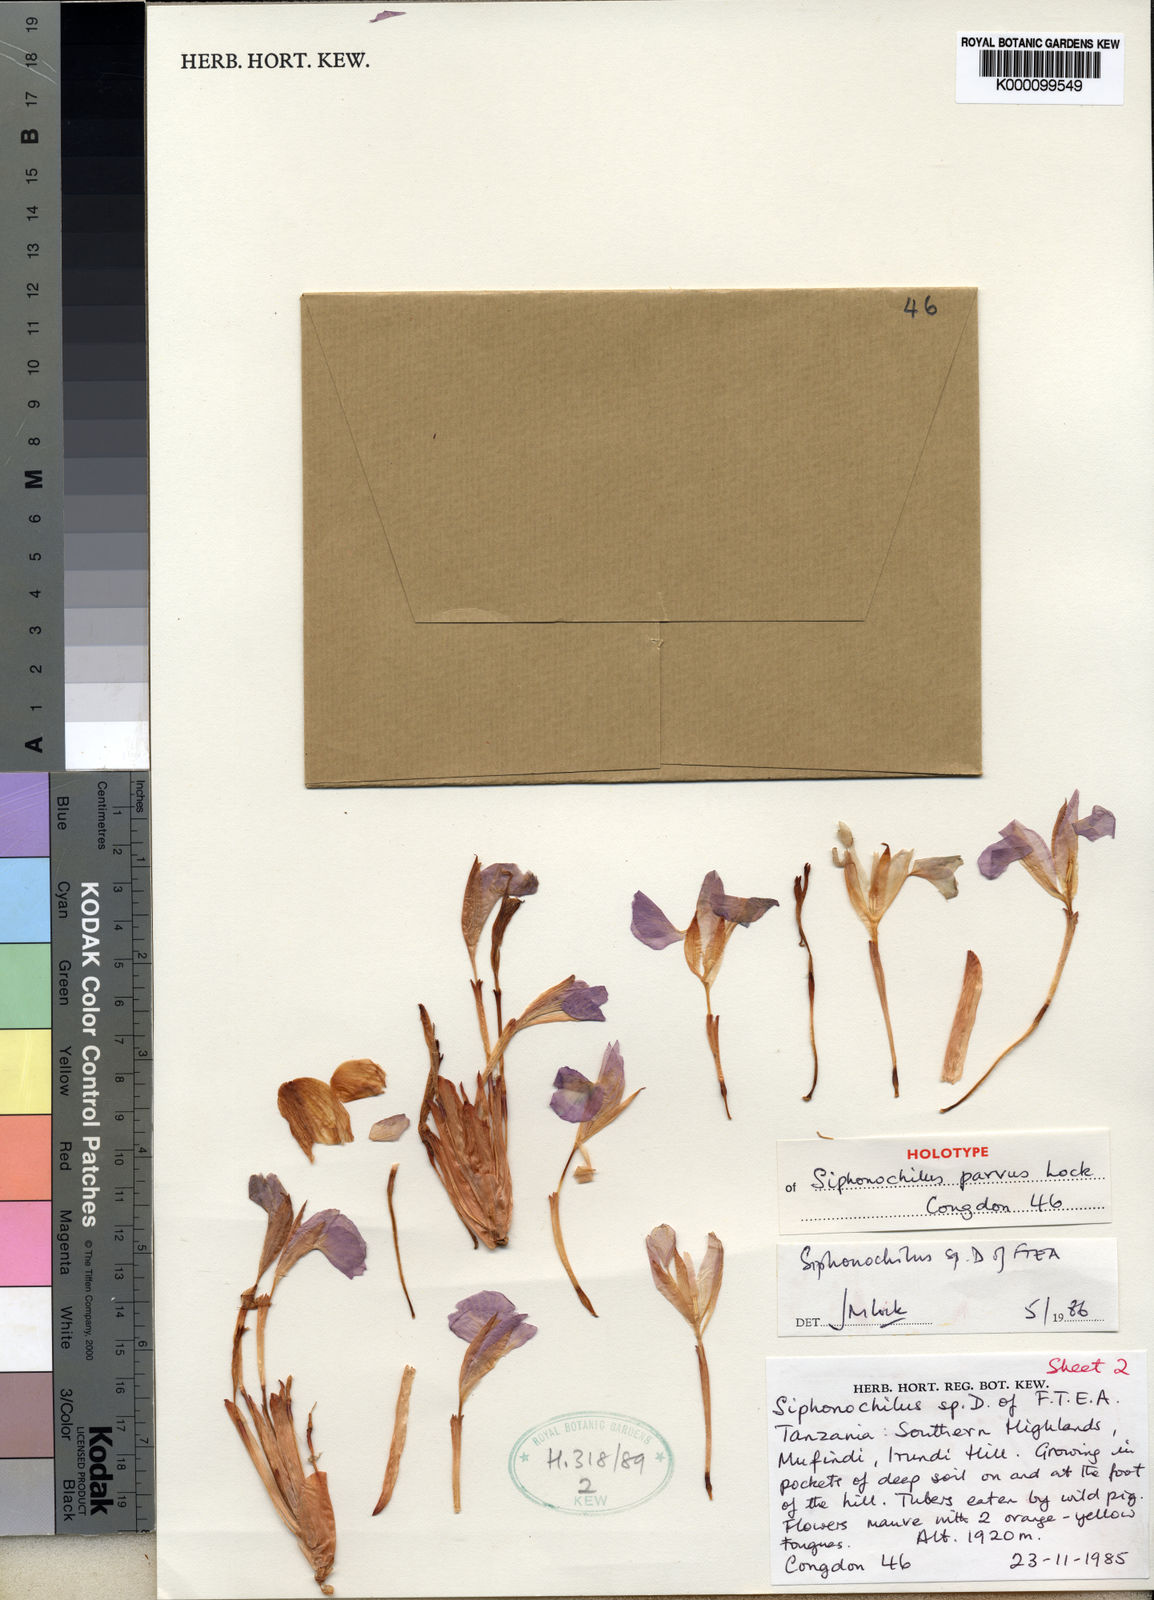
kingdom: Plantae
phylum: Tracheophyta
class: Liliopsida
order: Zingiberales
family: Zingiberaceae
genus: Siphonochilus
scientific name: Siphonochilus parvus
